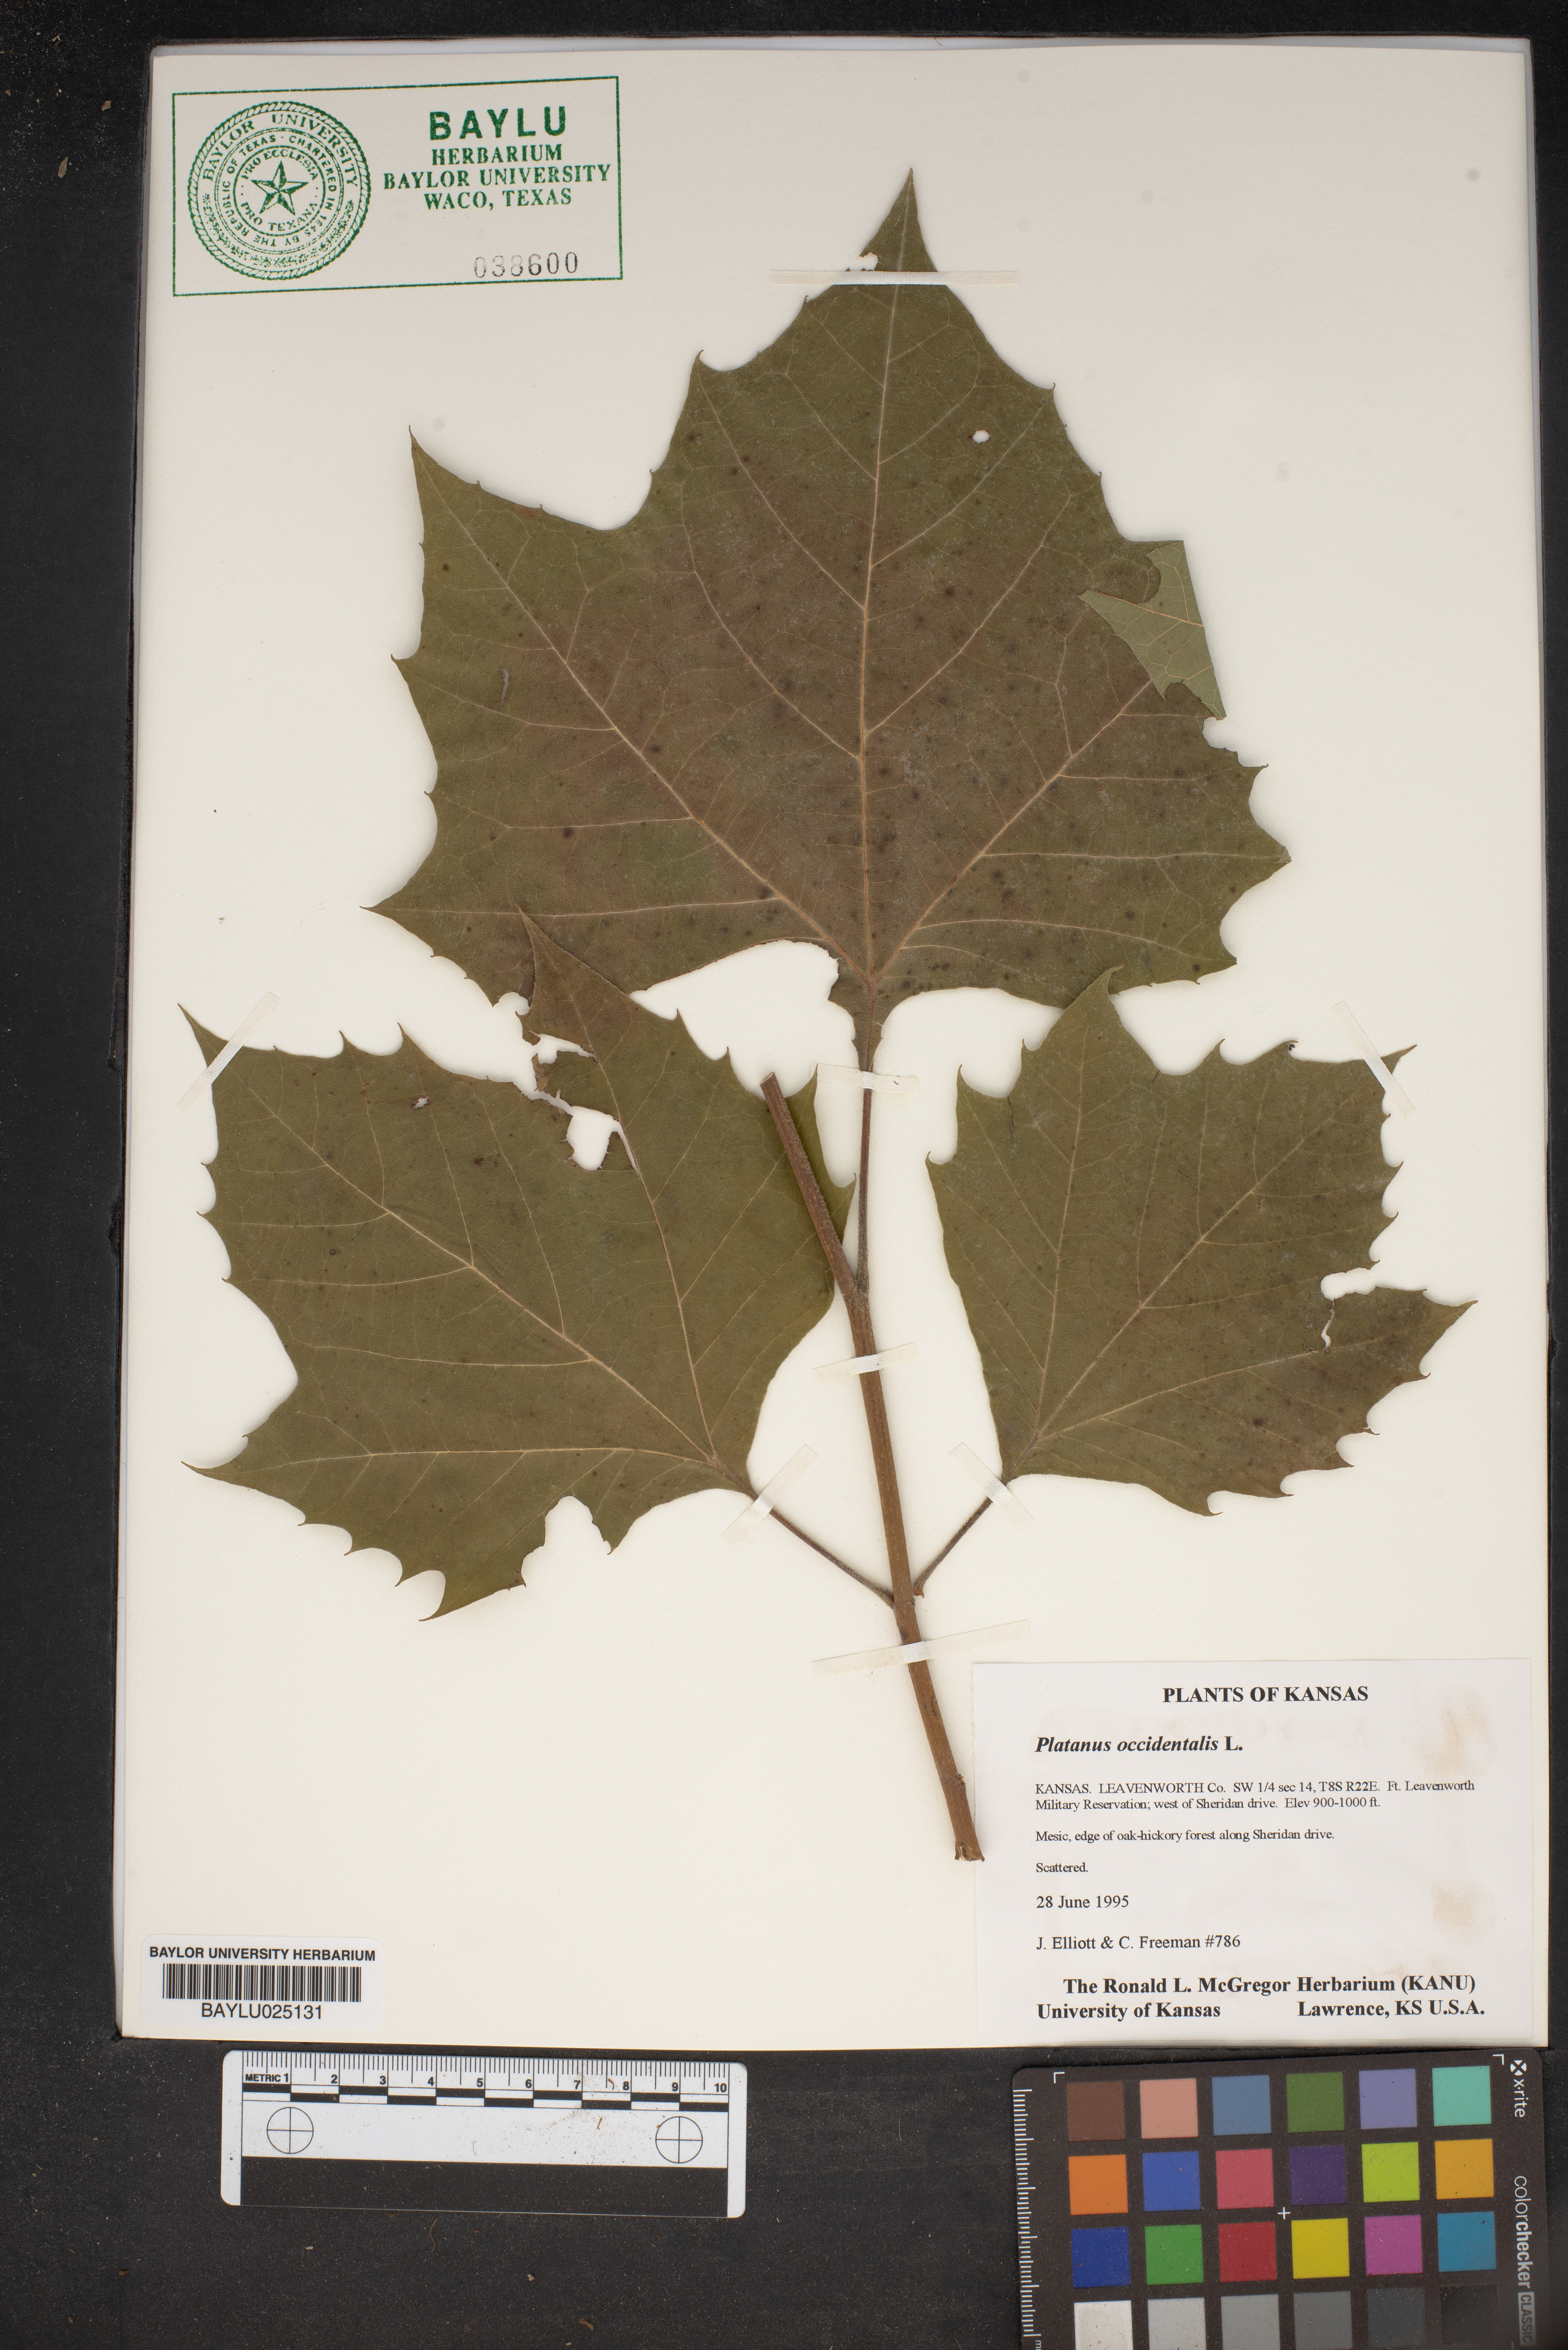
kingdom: Plantae
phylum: Tracheophyta
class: Magnoliopsida
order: Proteales
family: Platanaceae
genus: Platanus
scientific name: Platanus occidentalis
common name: American sycamore
